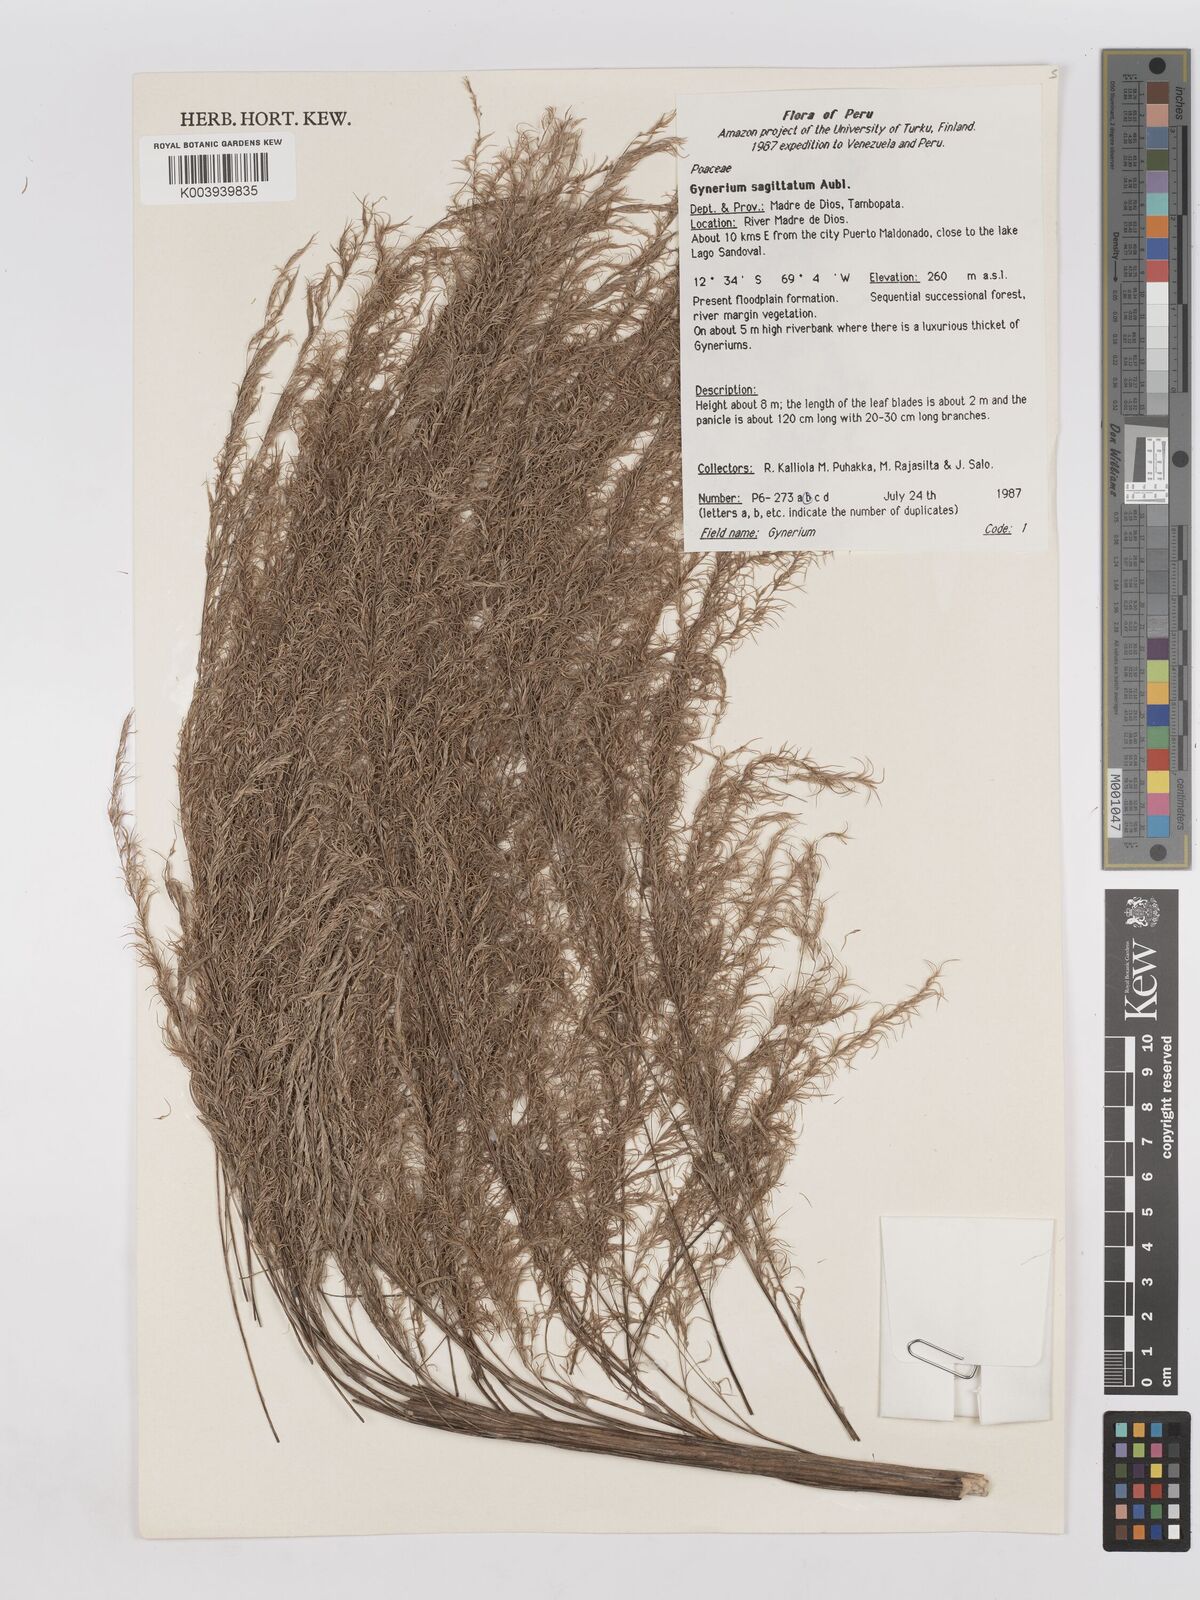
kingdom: Plantae
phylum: Tracheophyta
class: Liliopsida
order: Poales
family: Poaceae
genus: Gynerium
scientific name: Gynerium sagittatum
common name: Wild cane
